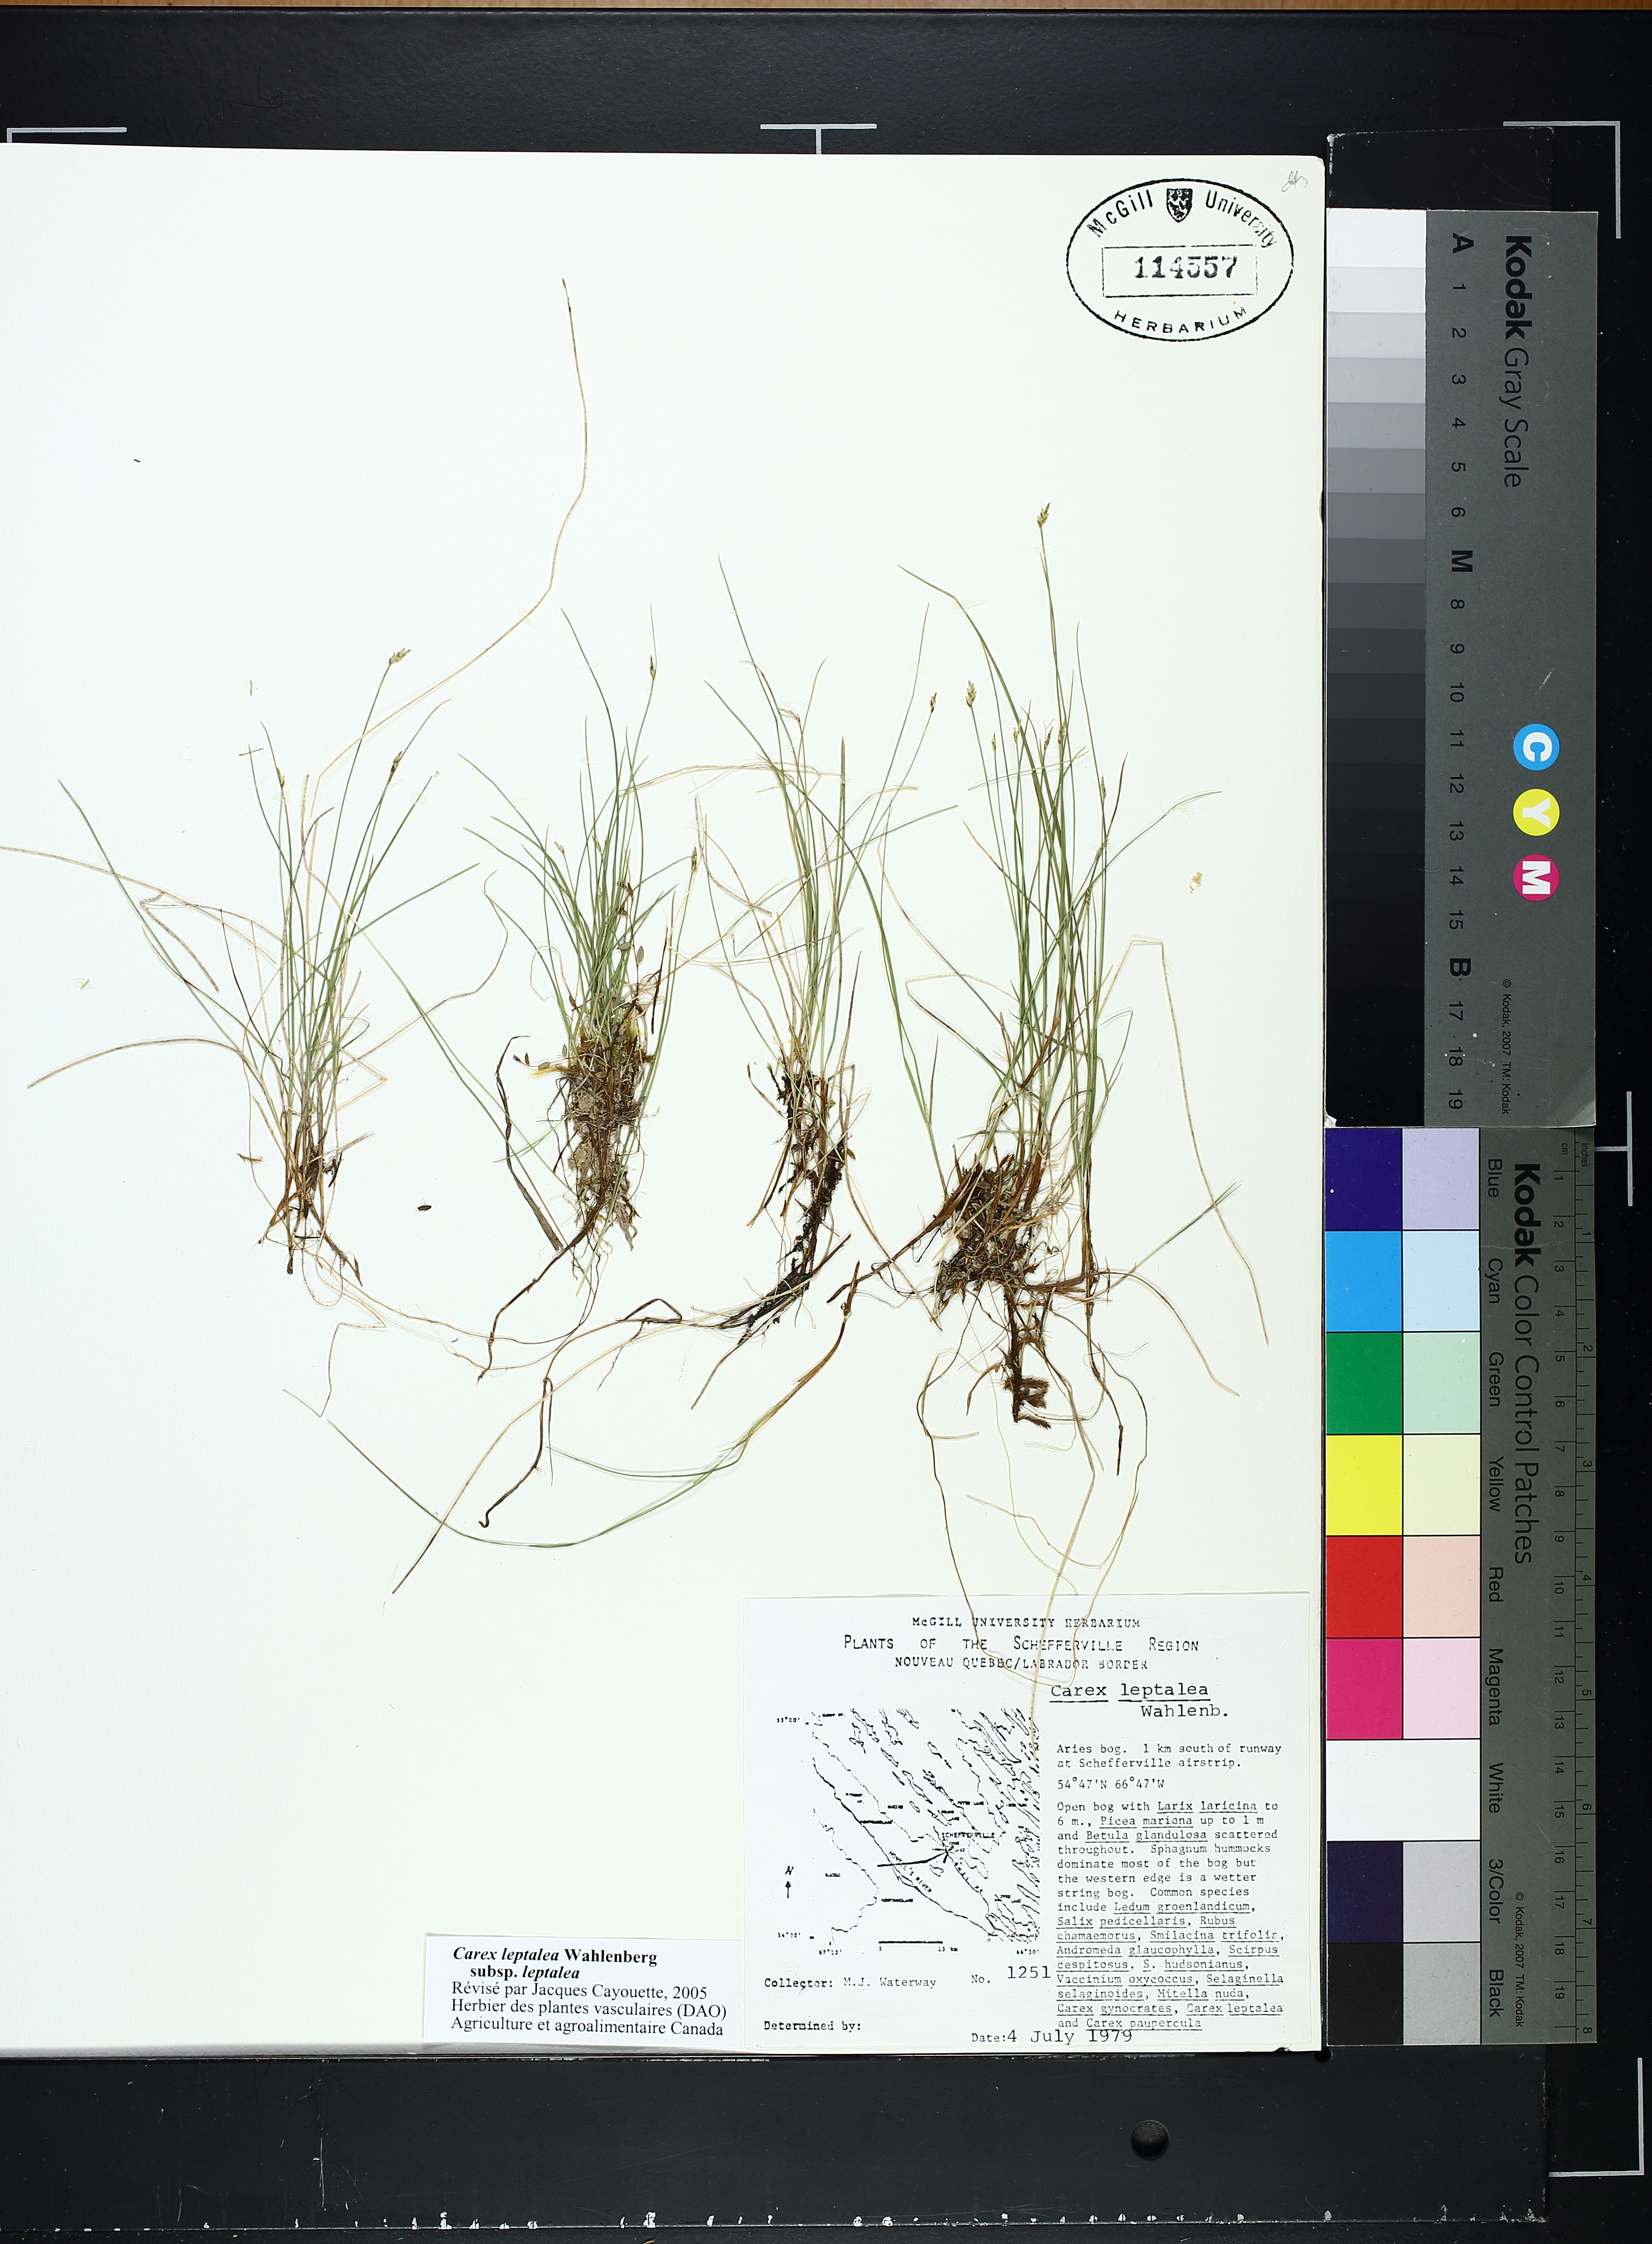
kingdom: Plantae
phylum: Tracheophyta
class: Liliopsida
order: Poales
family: Cyperaceae
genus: Carex
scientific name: Carex leptalea
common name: Bristly-stalked sedge
